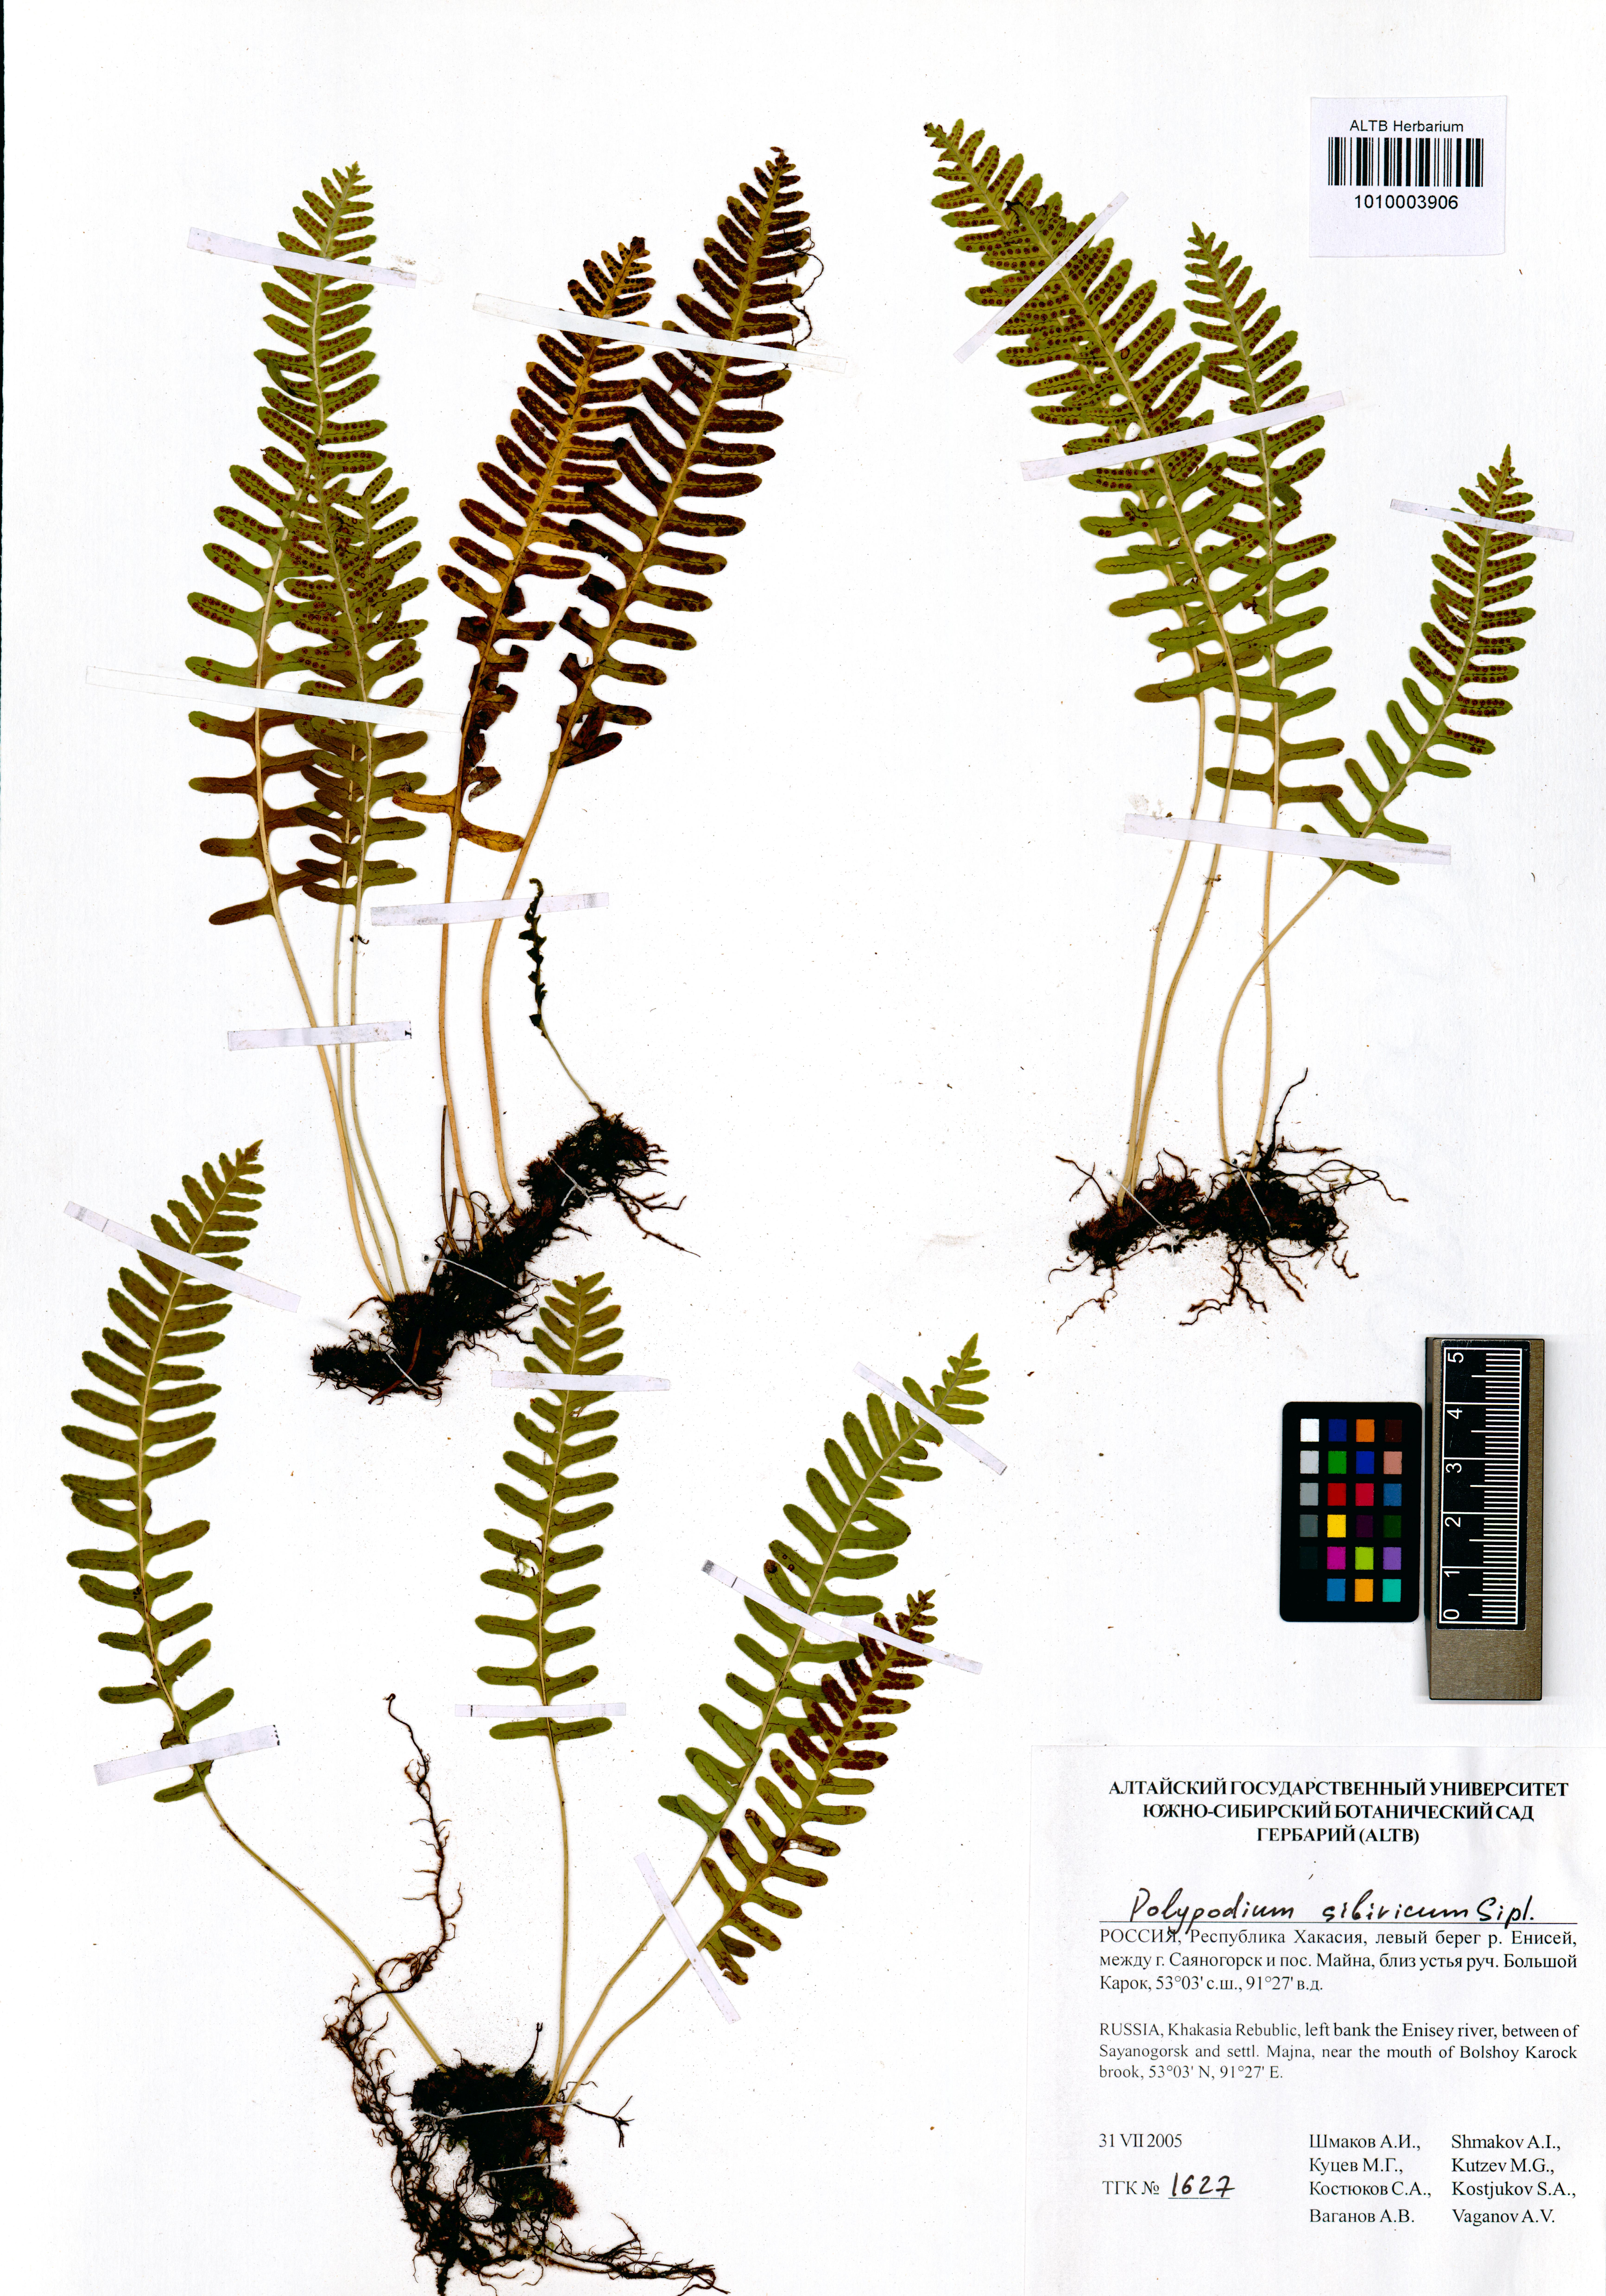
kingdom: Plantae
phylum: Tracheophyta
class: Polypodiopsida
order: Polypodiales
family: Polypodiaceae
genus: Polypodium
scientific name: Polypodium sibiricum
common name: Siberian polypody
